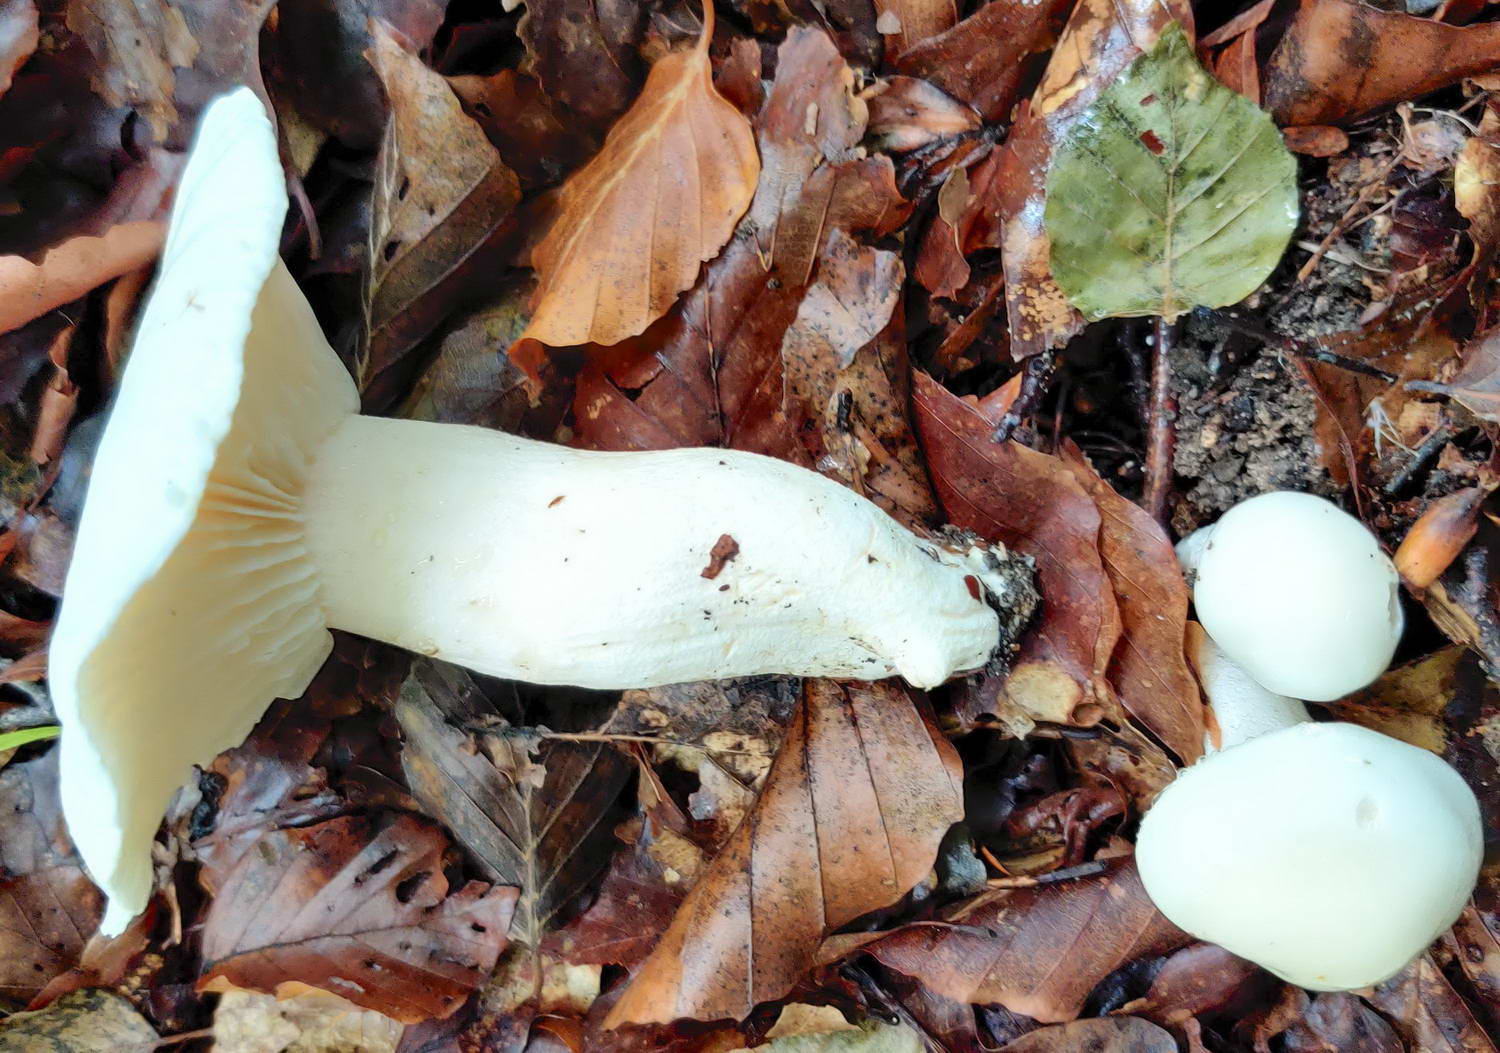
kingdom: Fungi
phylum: Basidiomycota
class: Agaricomycetes
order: Agaricales
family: Hygrophoraceae
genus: Hygrophorus
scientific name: Hygrophorus penarius
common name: spiselig sneglehat
